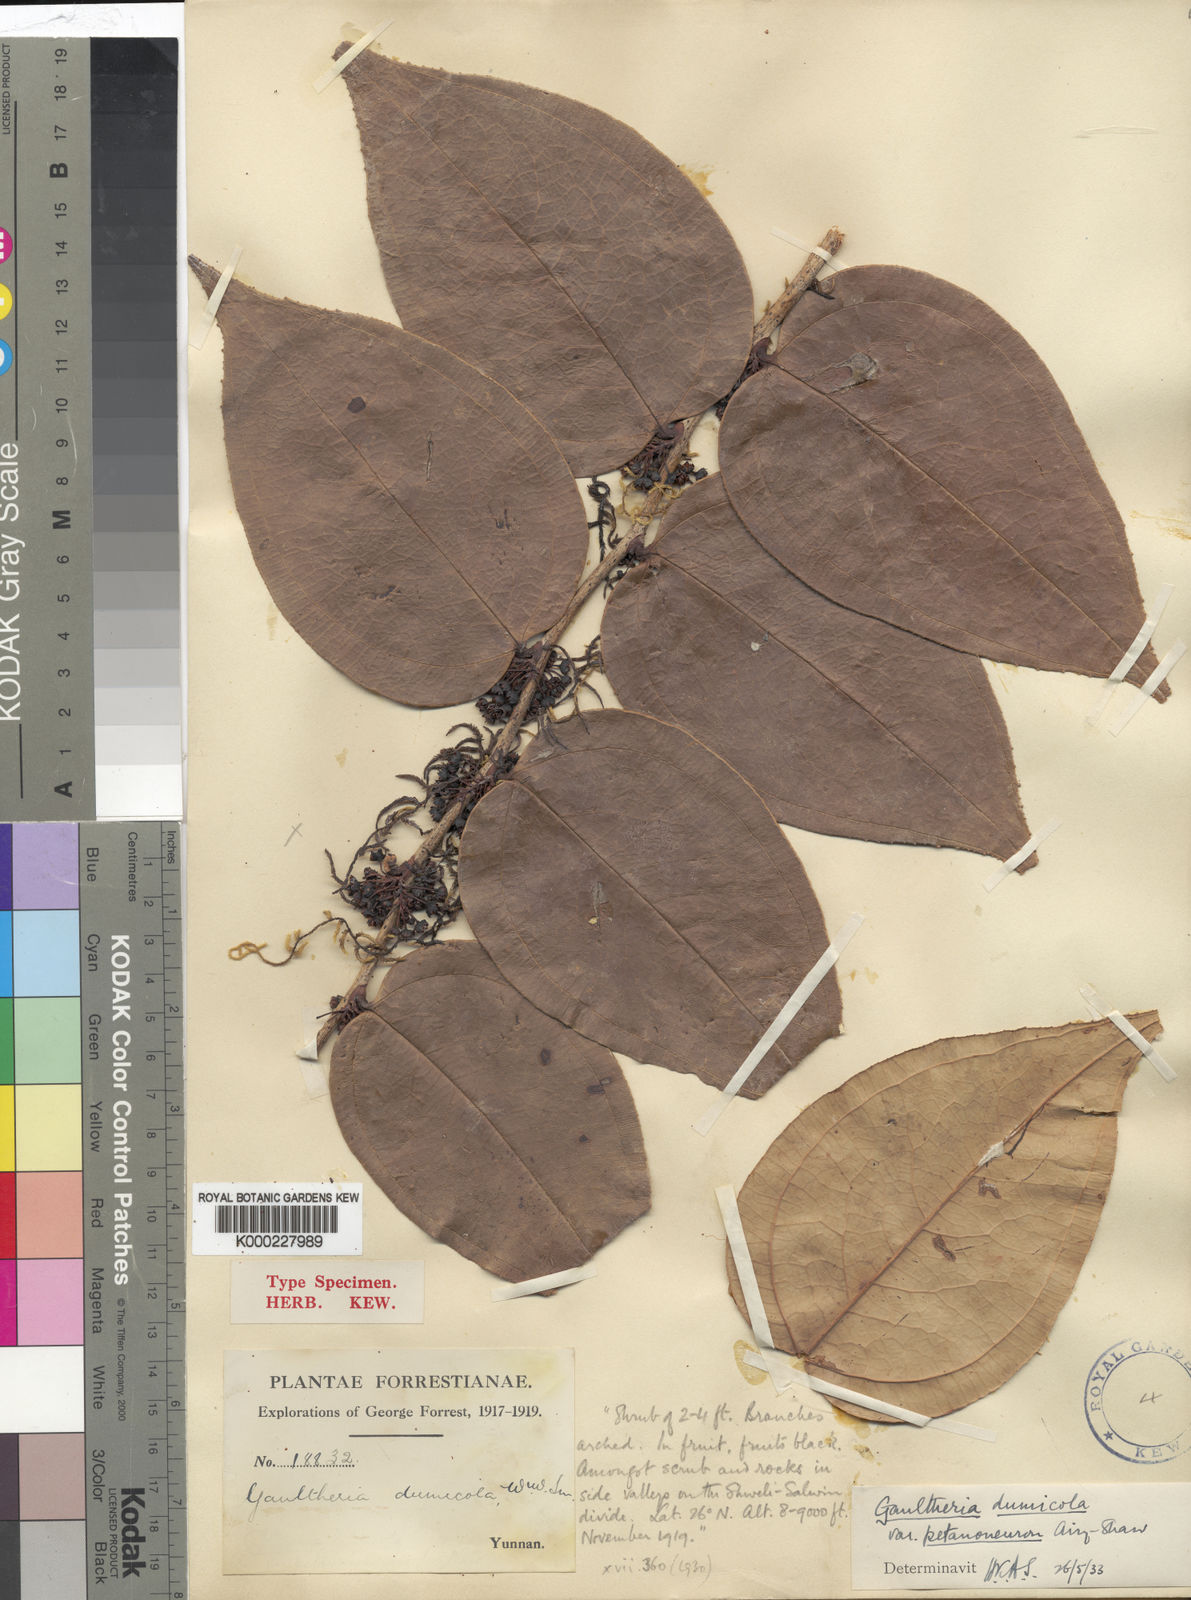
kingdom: Plantae
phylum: Tracheophyta
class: Magnoliopsida
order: Ericales
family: Ericaceae
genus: Gaultheria
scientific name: Gaultheria dumicola
